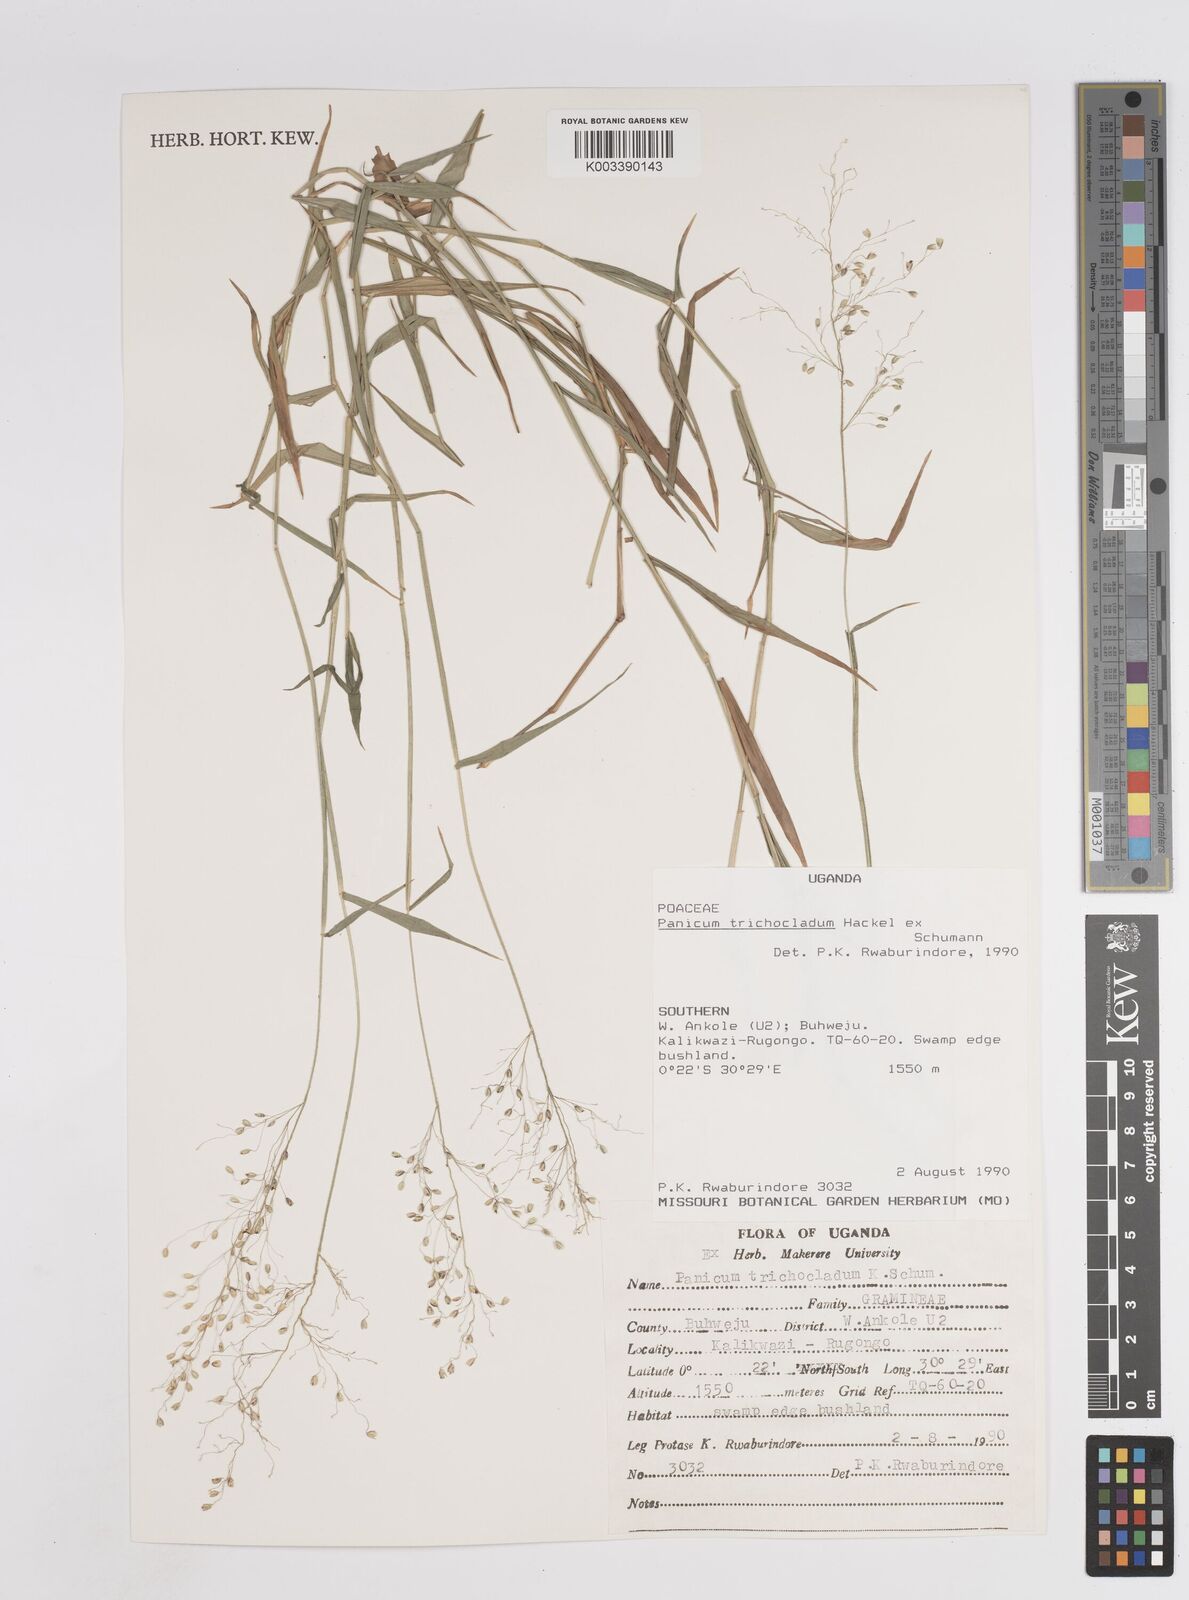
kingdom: Plantae
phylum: Tracheophyta
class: Liliopsida
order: Poales
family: Poaceae
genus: Megathyrsus
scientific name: Megathyrsus maximus
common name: Guineagrass
